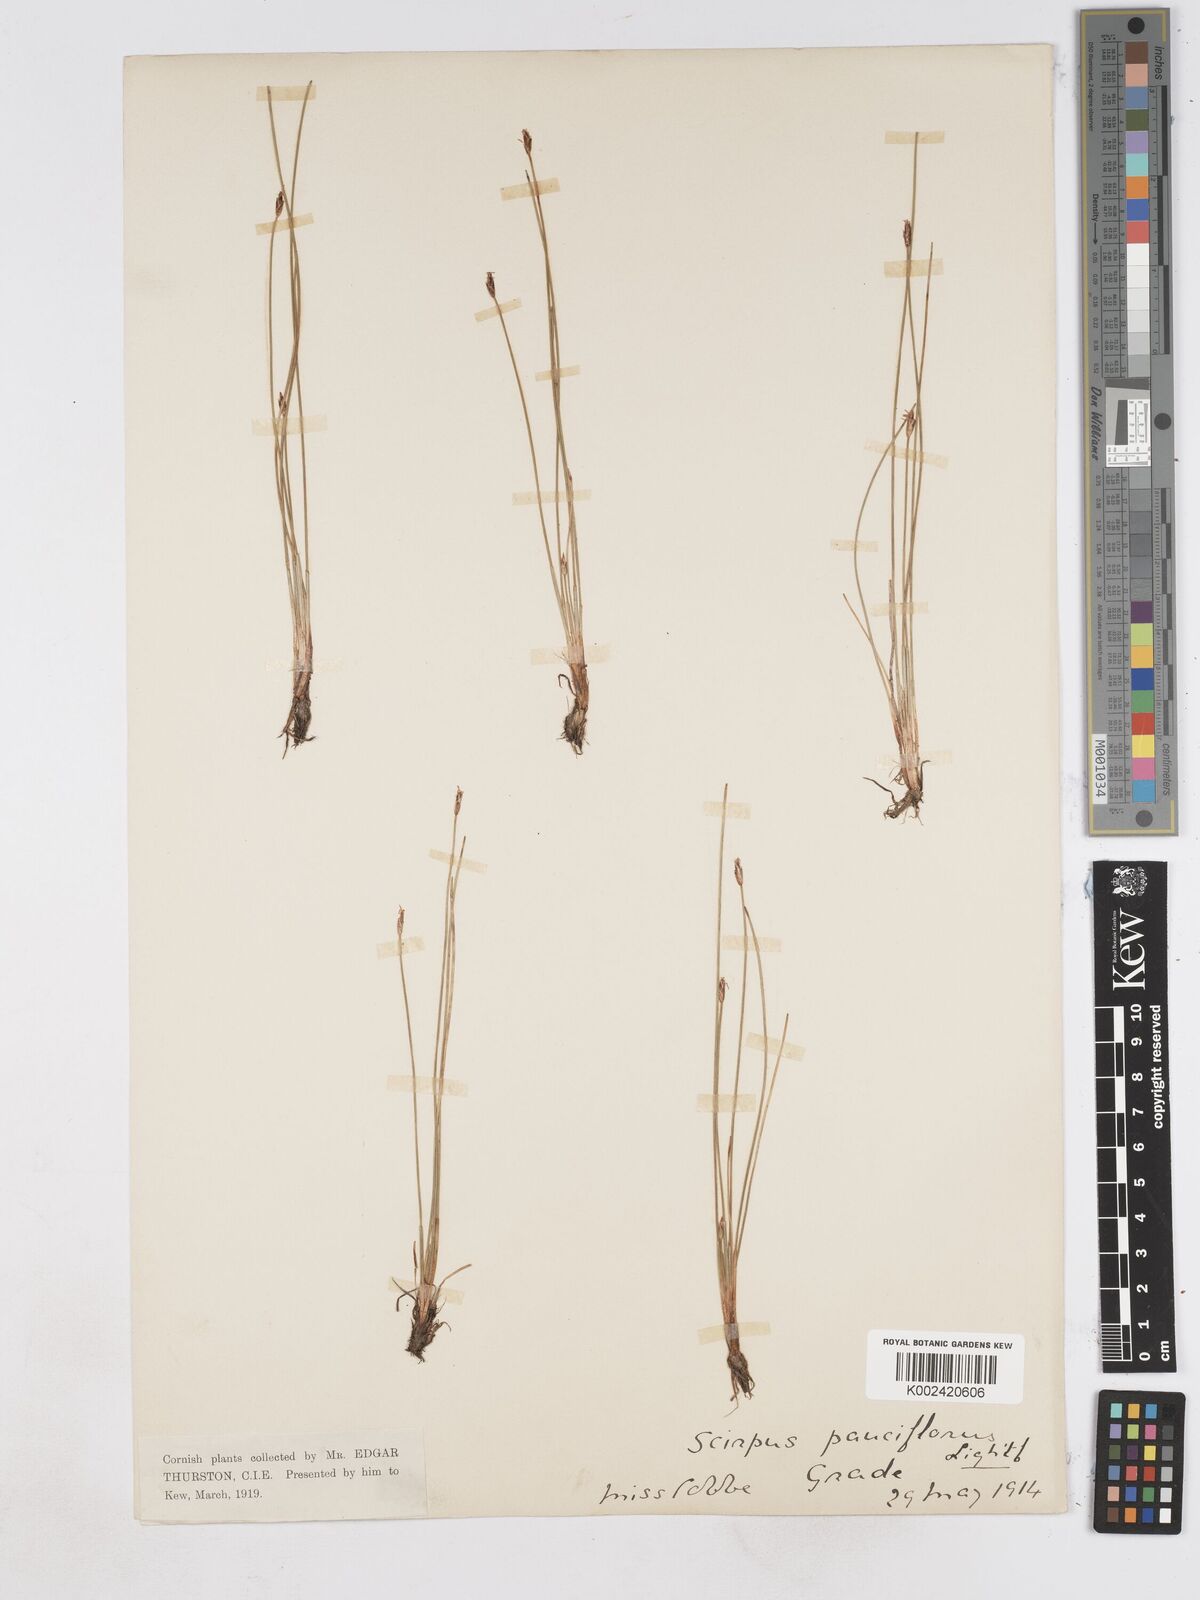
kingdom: Plantae
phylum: Tracheophyta
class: Liliopsida
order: Poales
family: Cyperaceae
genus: Eleocharis
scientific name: Eleocharis quinqueflora
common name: Few-flowered spike-rush
